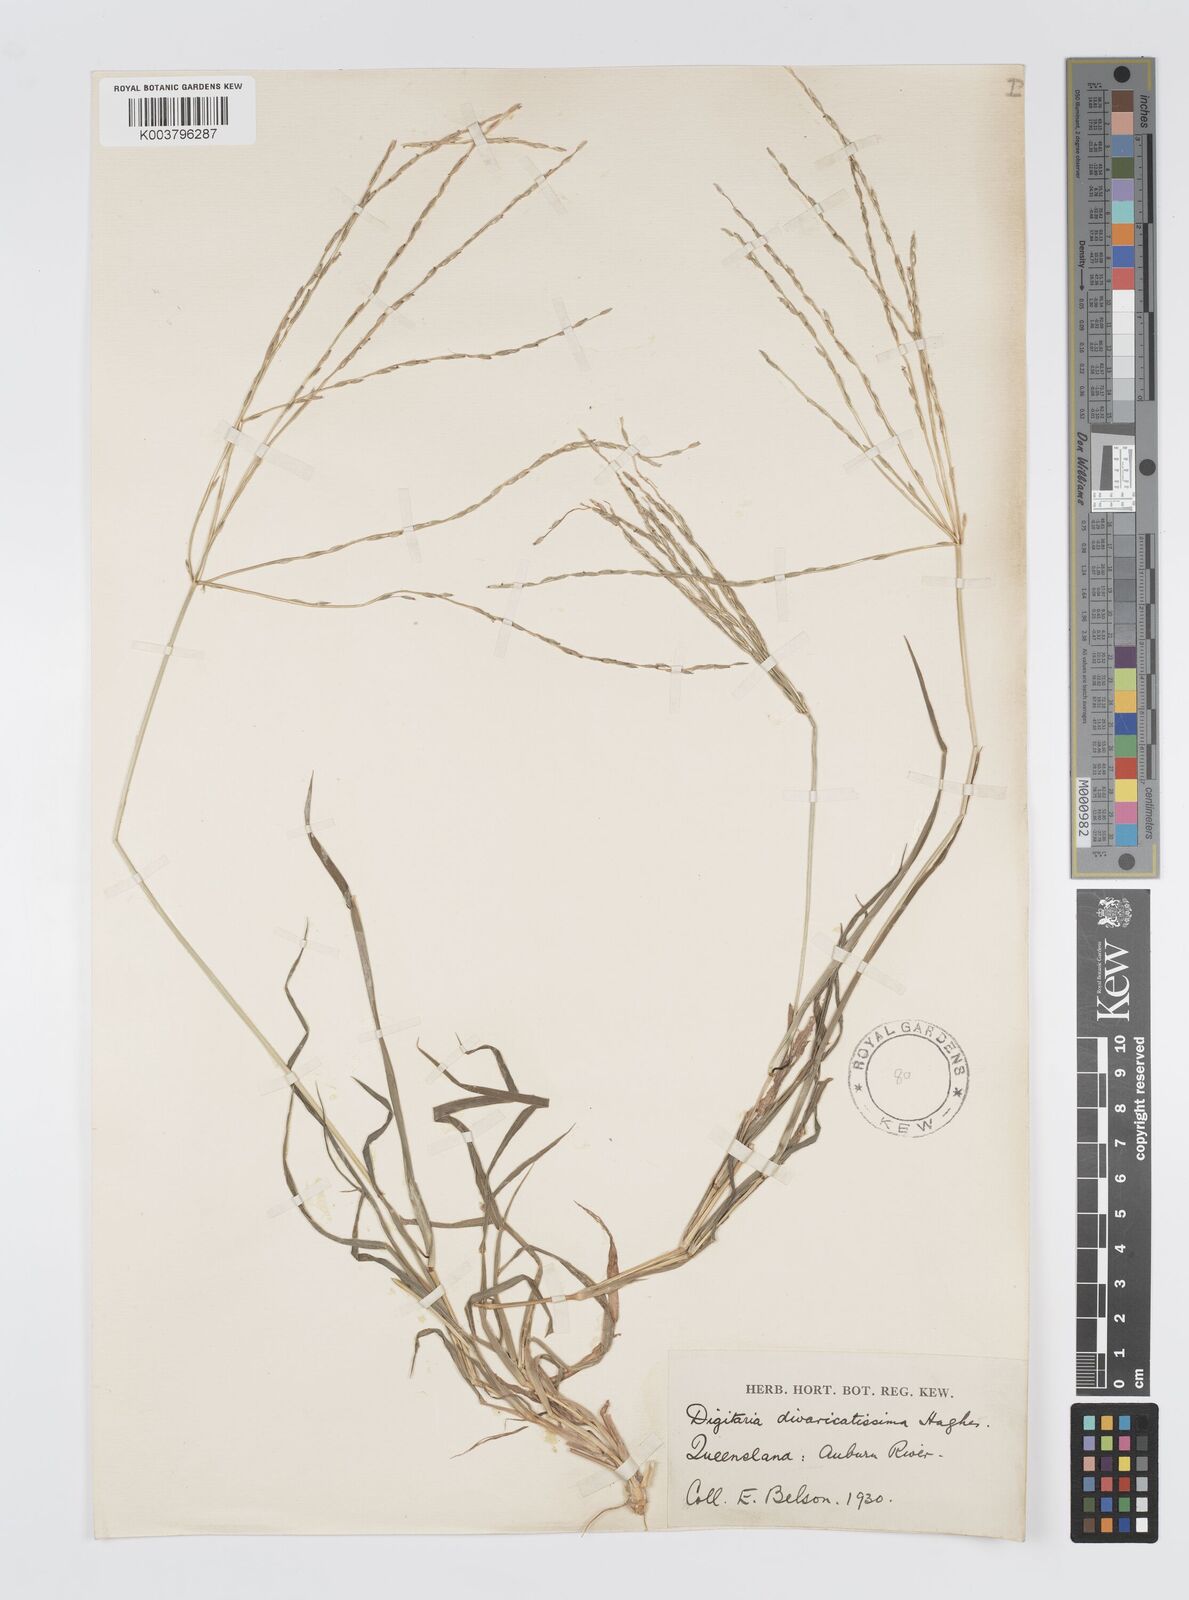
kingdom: Plantae
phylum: Tracheophyta
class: Liliopsida
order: Poales
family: Poaceae
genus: Digitaria
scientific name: Digitaria divaricatissima
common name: Crabgrass
